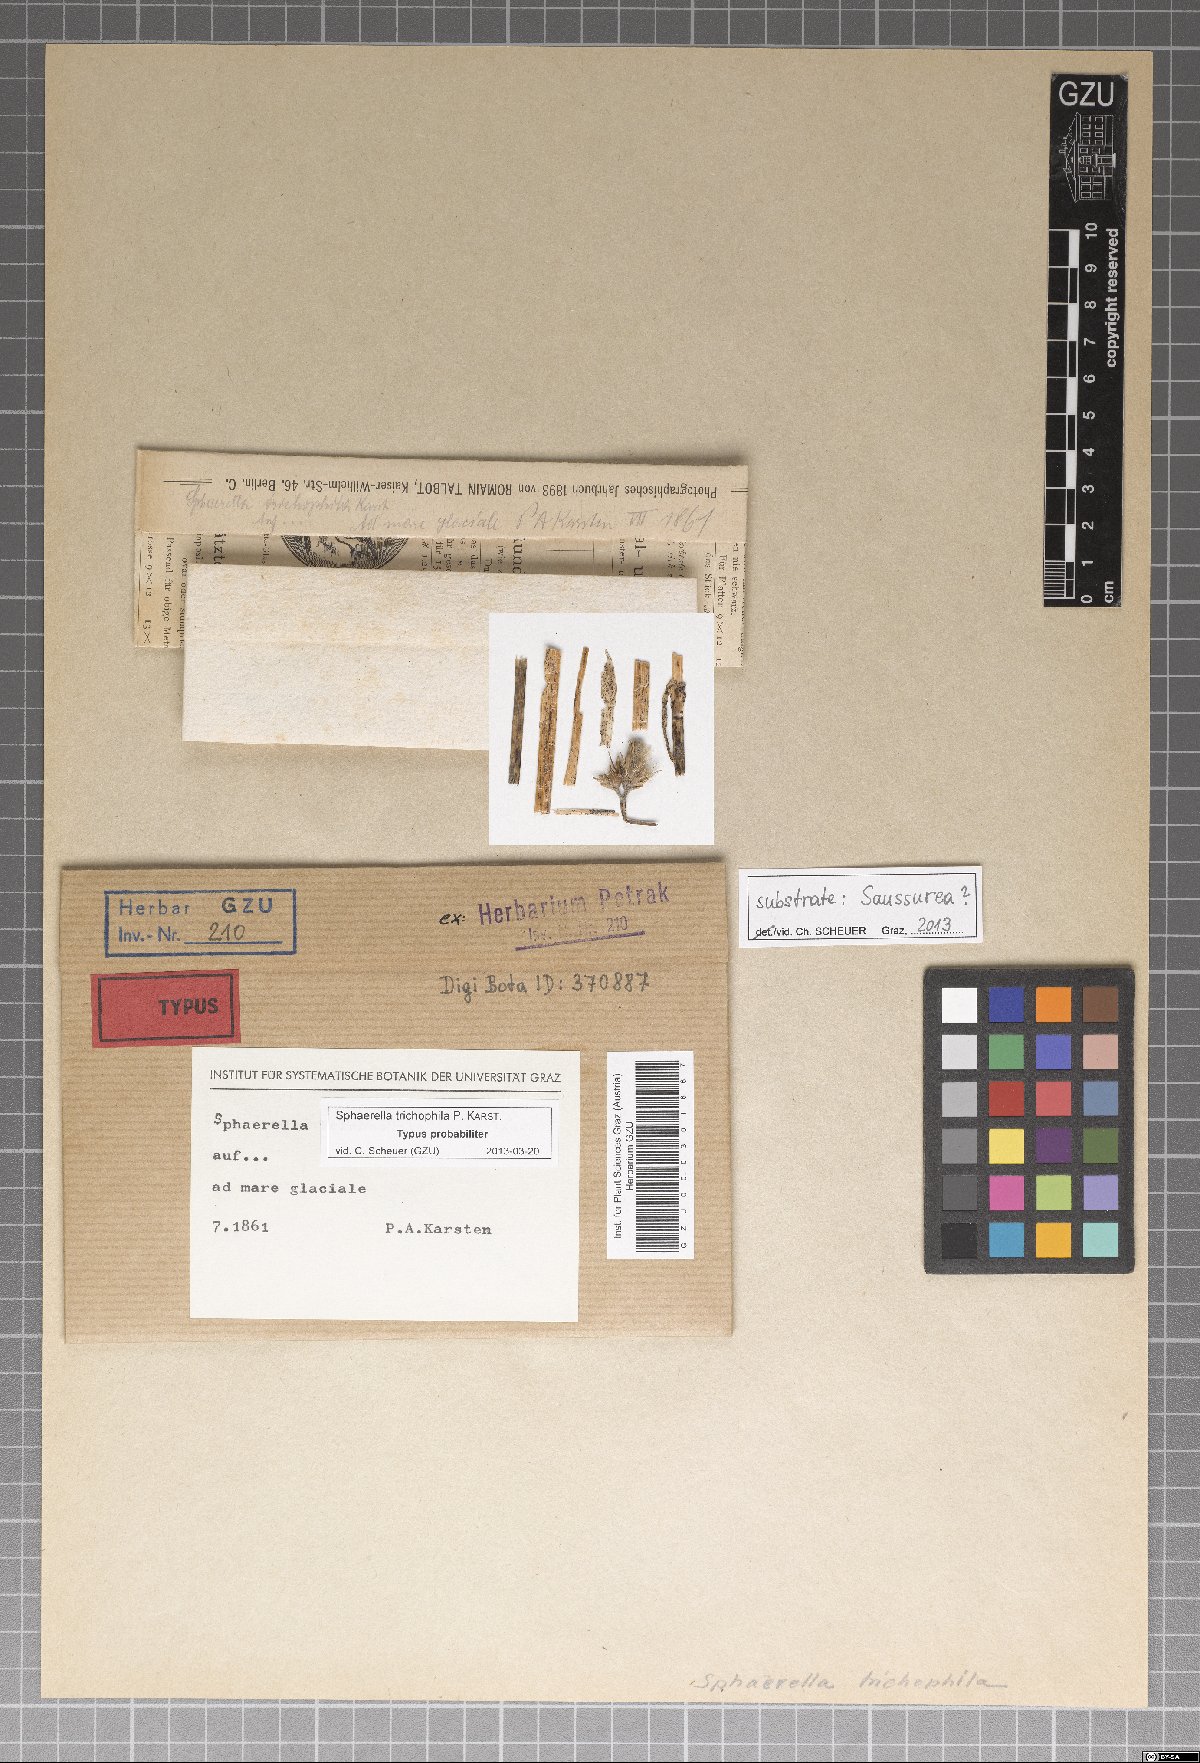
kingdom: Fungi
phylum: Ascomycota
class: Dothideomycetes
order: Mycosphaerellales
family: Mycosphaerellaceae
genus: Mycosphaerella
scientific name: Mycosphaerella tassiana
